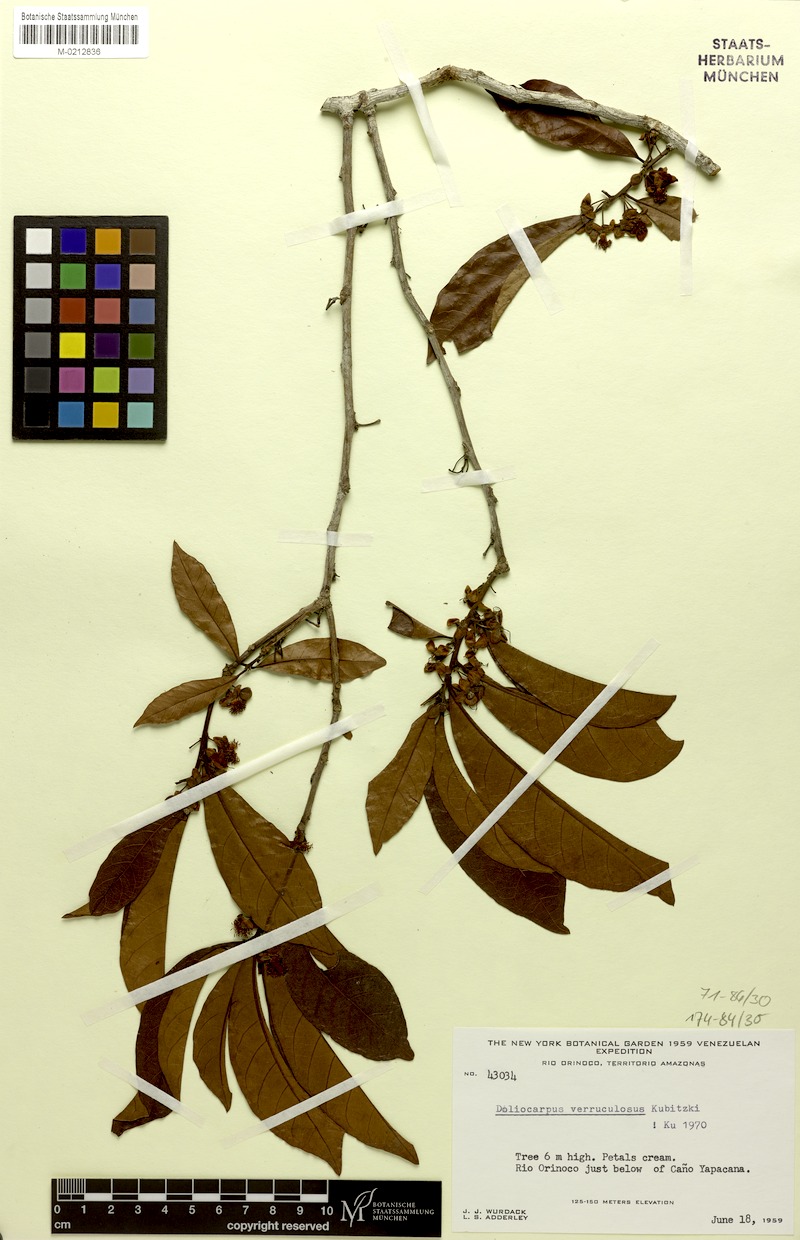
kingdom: Plantae
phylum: Tracheophyta
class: Magnoliopsida
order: Dilleniales
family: Dilleniaceae
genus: Doliocarpus
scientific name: Doliocarpus verruculosus
